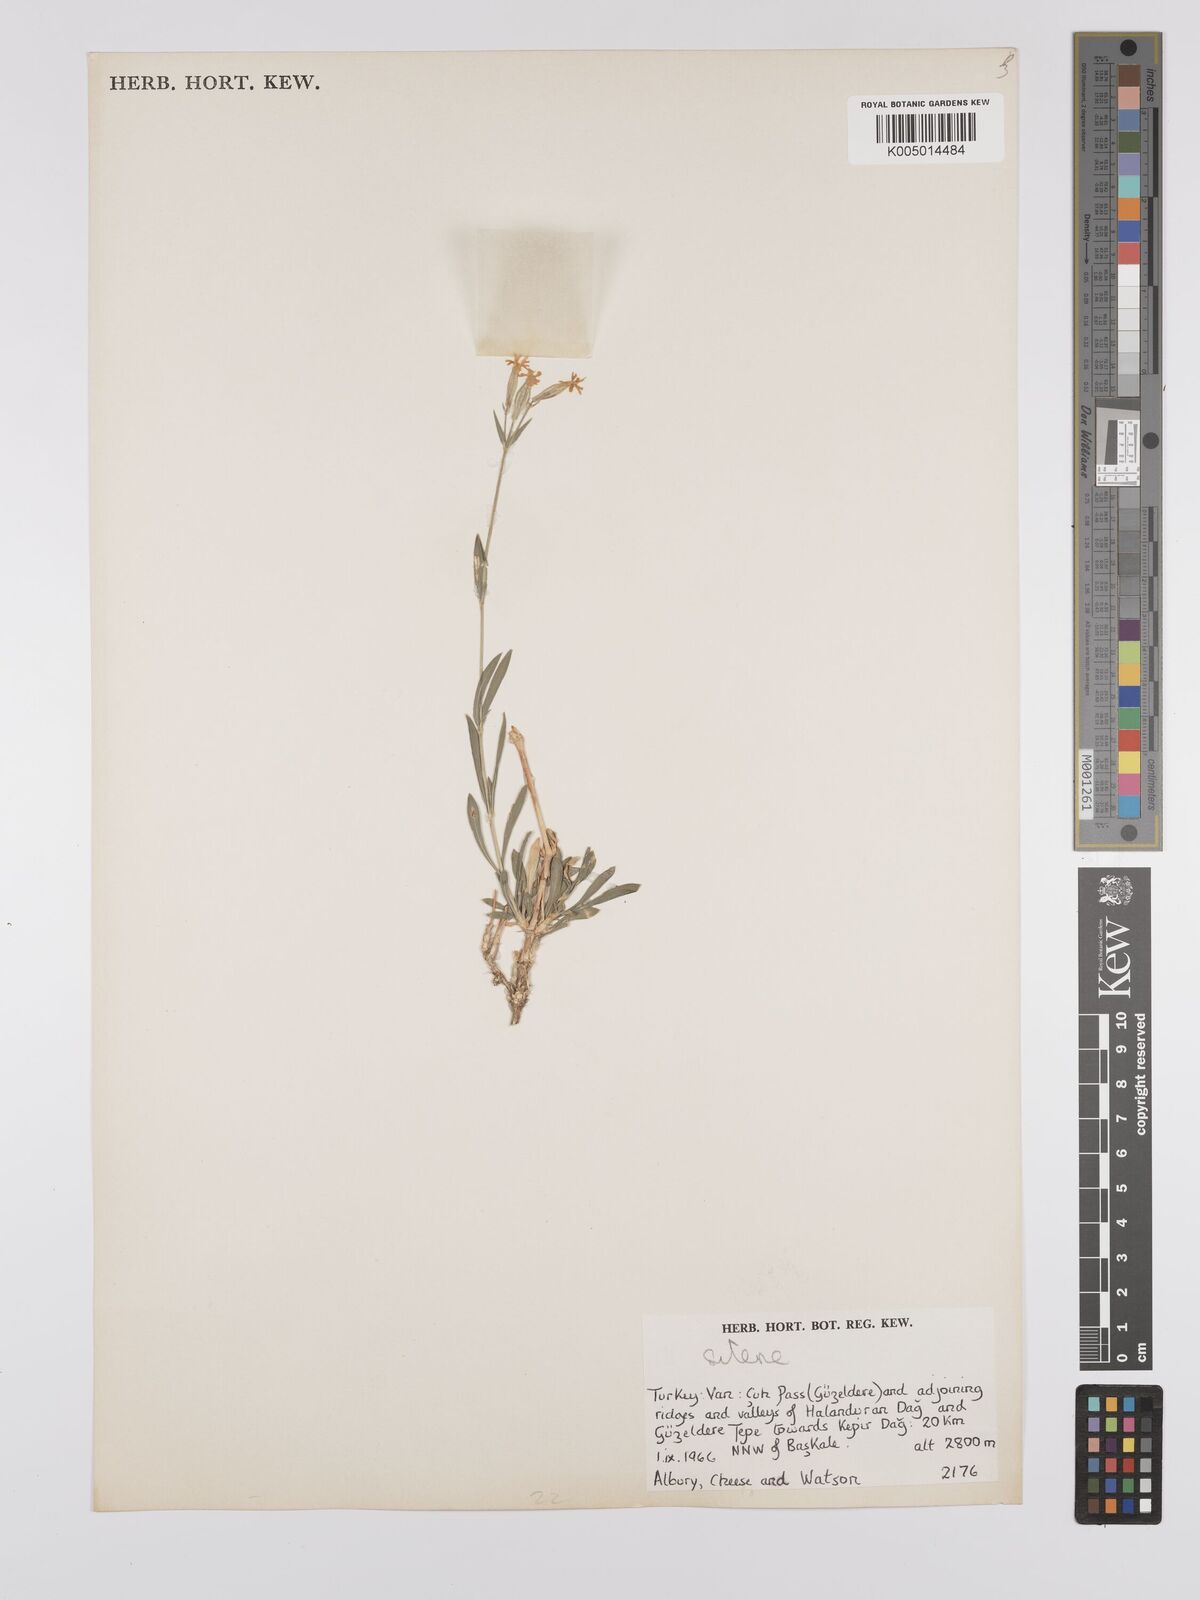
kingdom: Plantae
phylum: Tracheophyta
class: Magnoliopsida
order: Caryophyllales
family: Caryophyllaceae
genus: Silene
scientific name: Silene
